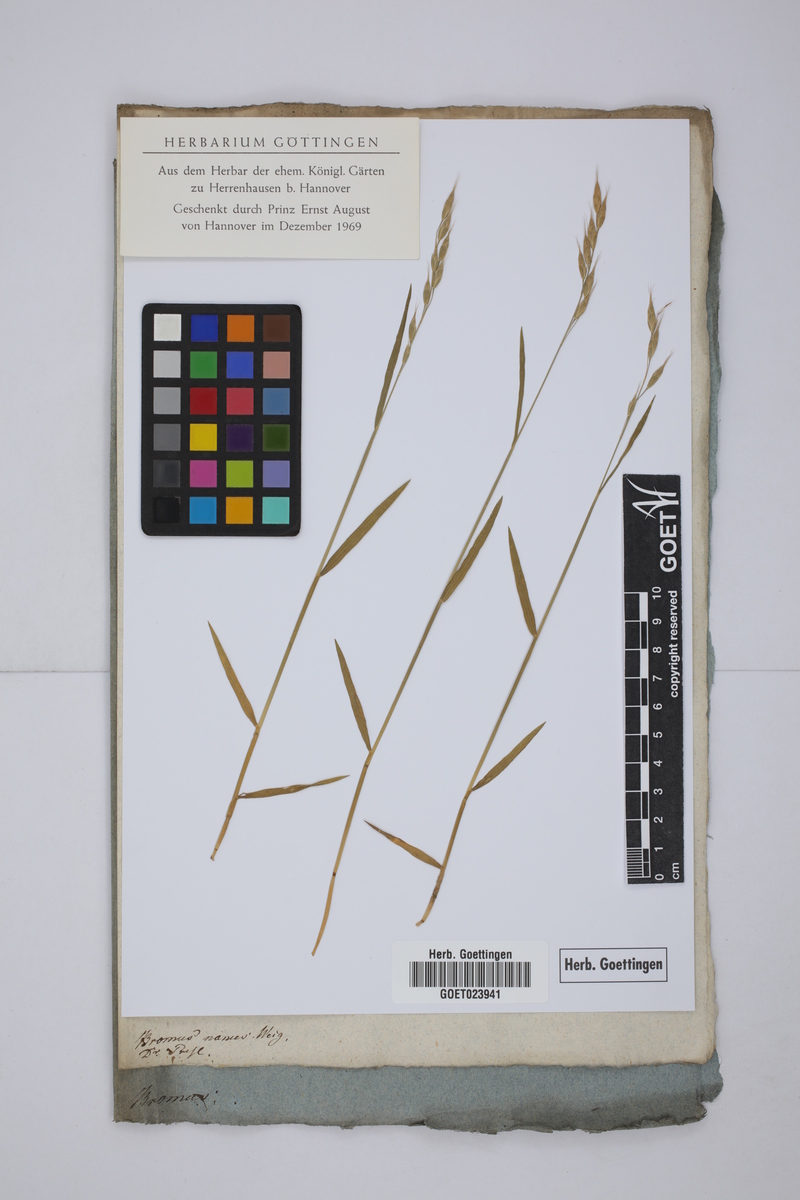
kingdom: Plantae
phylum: Tracheophyta
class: Liliopsida
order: Poales
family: Poaceae
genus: Bromus
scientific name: Bromus hordeaceus
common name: Soft brome
